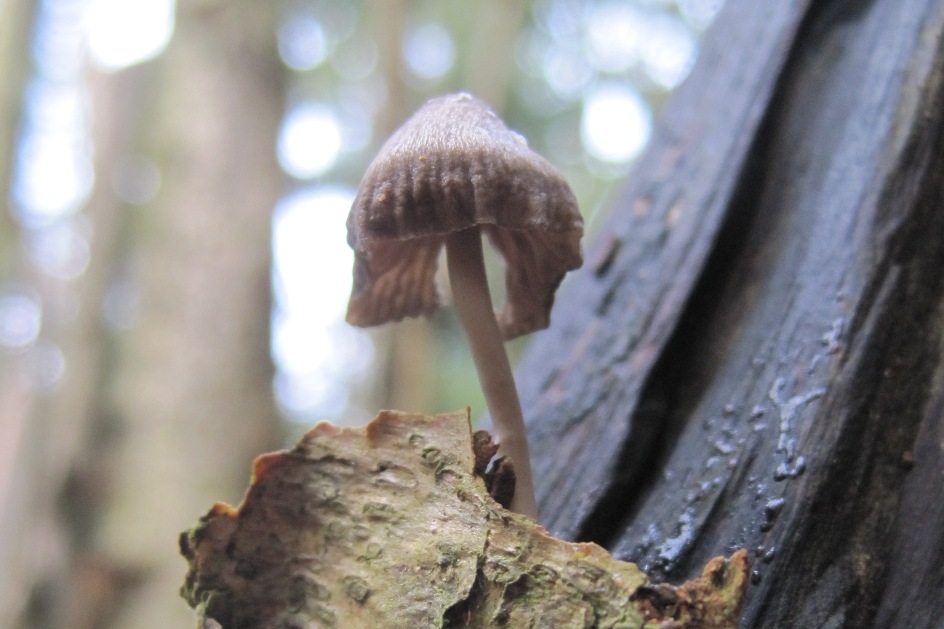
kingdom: Fungi
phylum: Basidiomycota
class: Agaricomycetes
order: Agaricales
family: Mycenaceae
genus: Mycena
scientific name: Mycena polygramma
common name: mangestribet huesvamp
